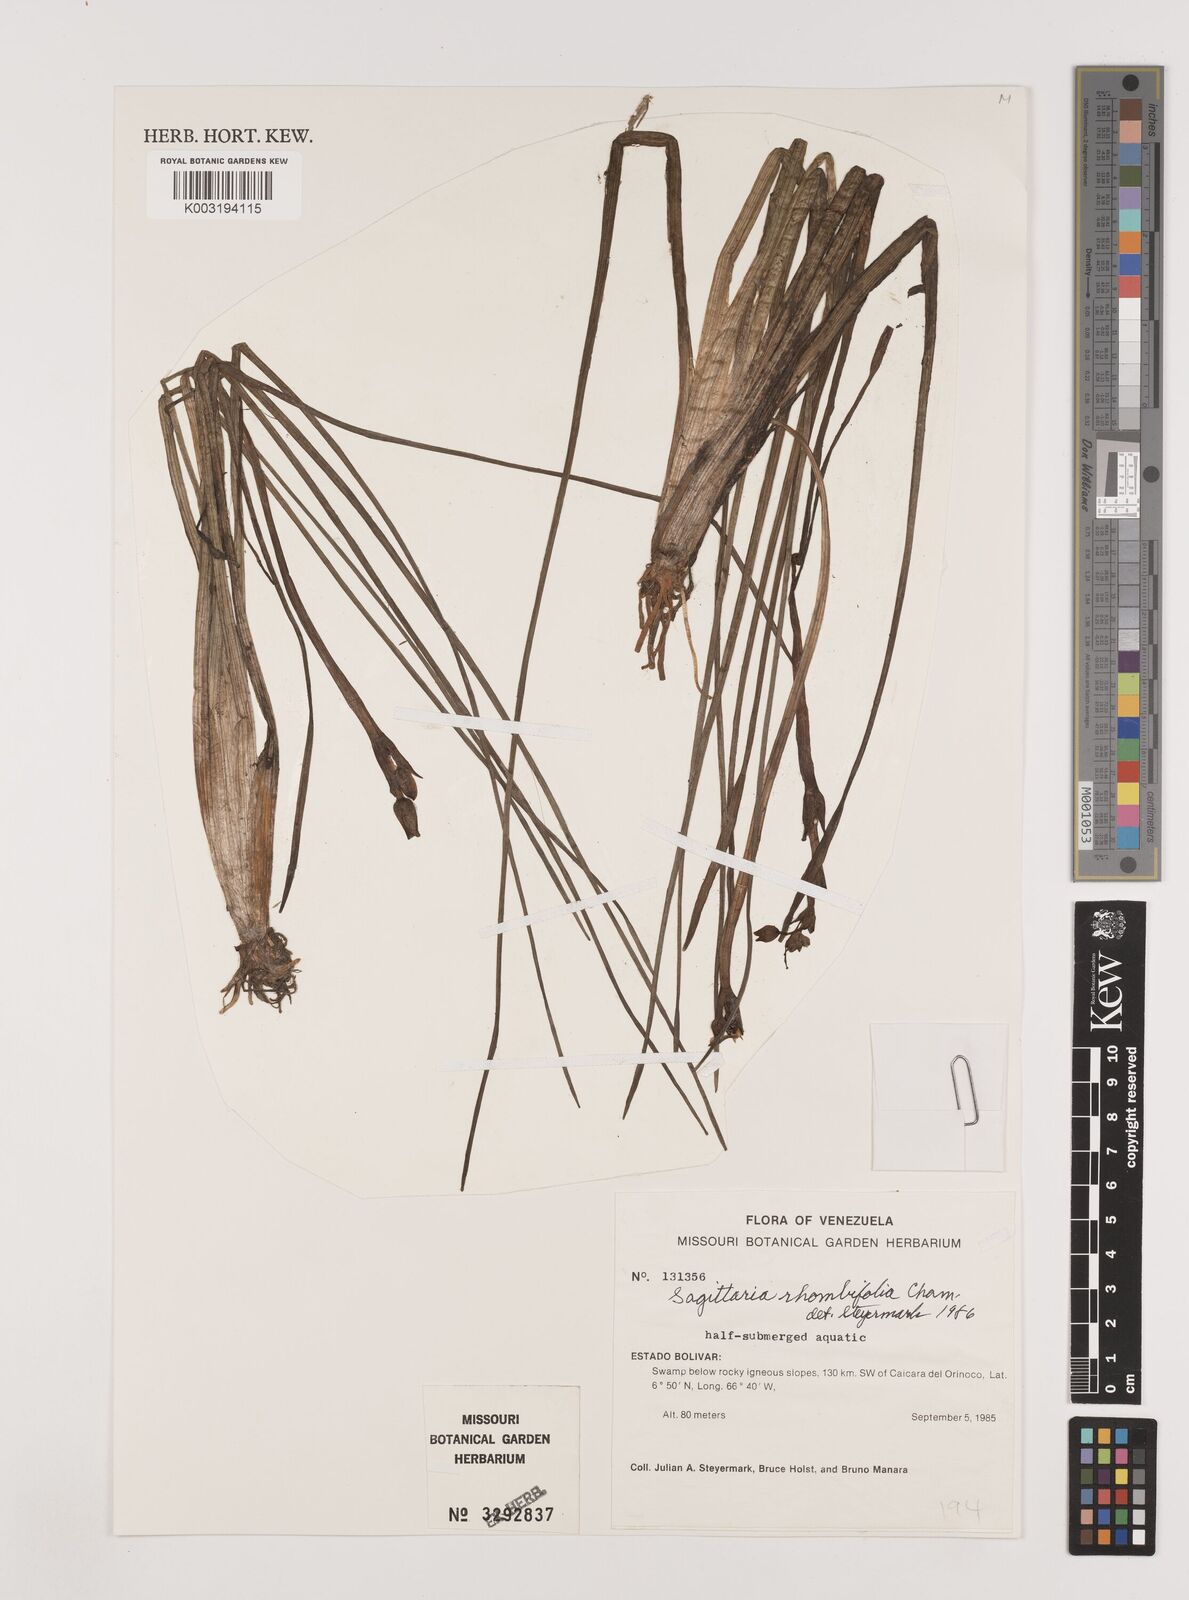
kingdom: Plantae
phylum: Tracheophyta
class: Liliopsida
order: Alismatales
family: Alismataceae
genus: Sagittaria
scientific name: Sagittaria rhombifolia
